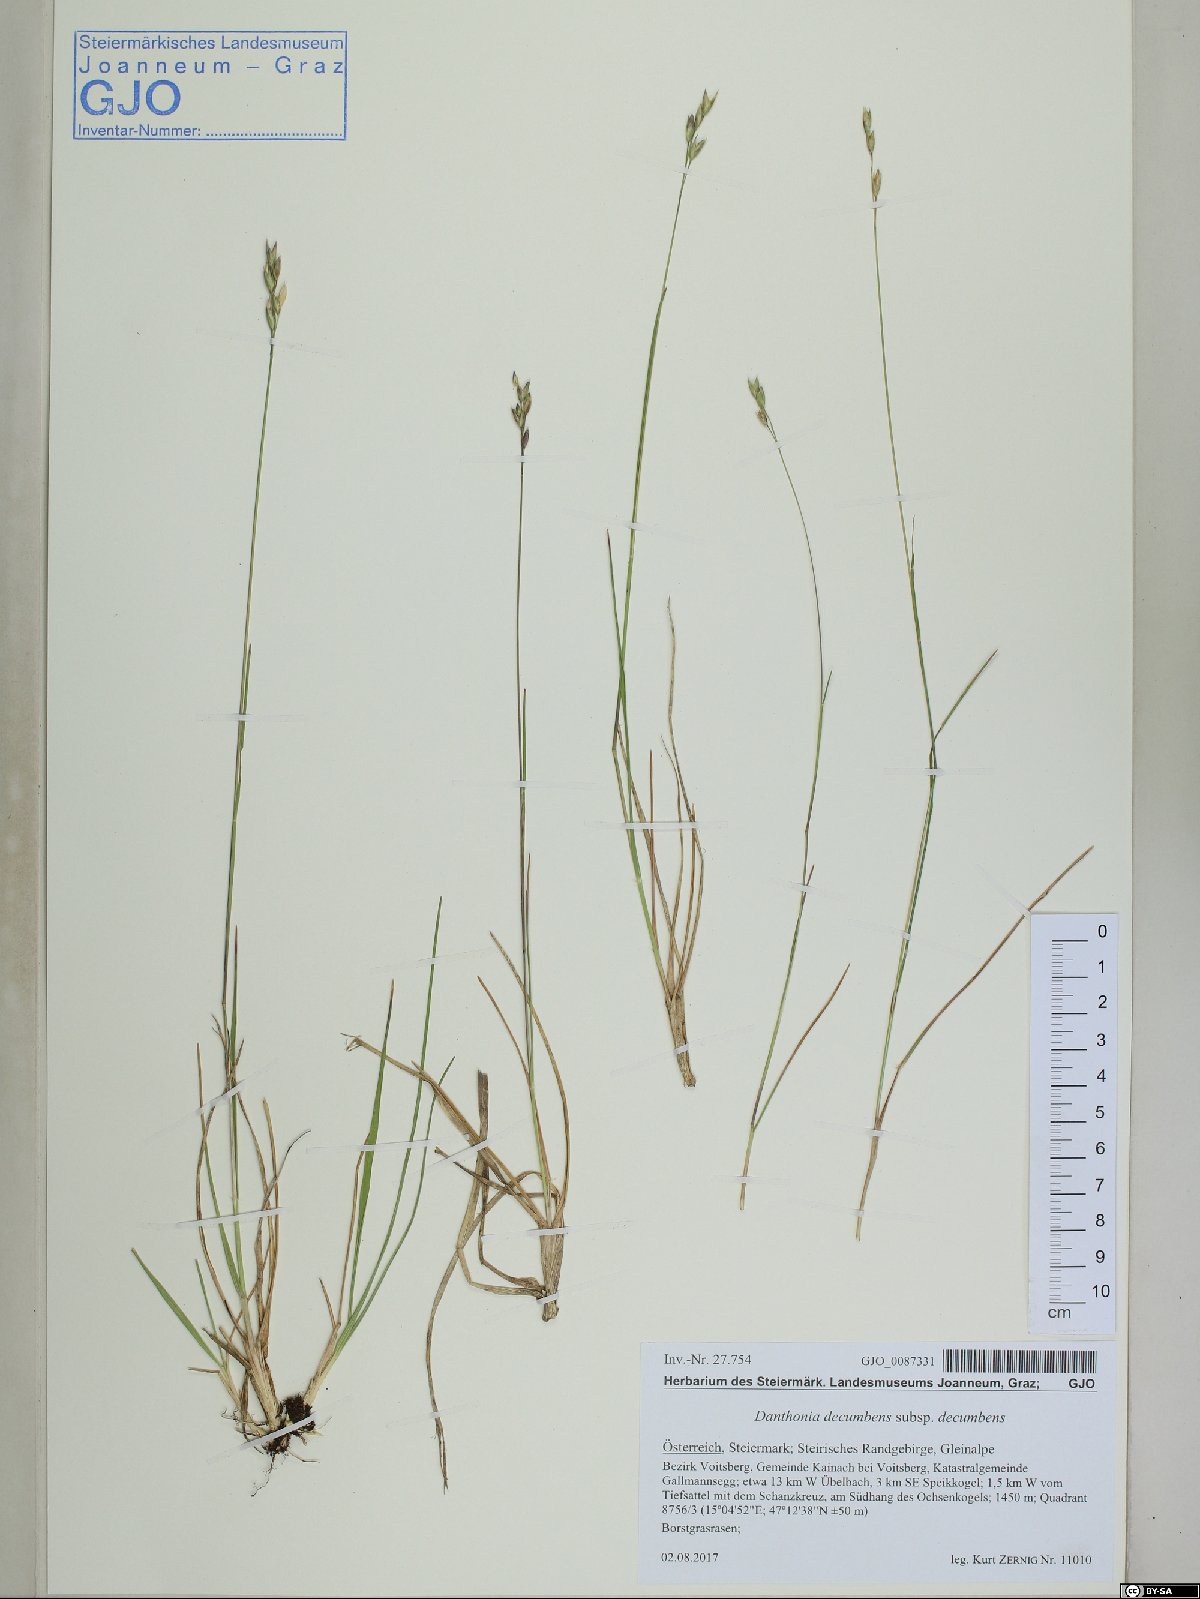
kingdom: Plantae
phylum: Tracheophyta
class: Liliopsida
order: Poales
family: Poaceae
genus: Danthonia
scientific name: Danthonia decumbens
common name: Common heathgrass
